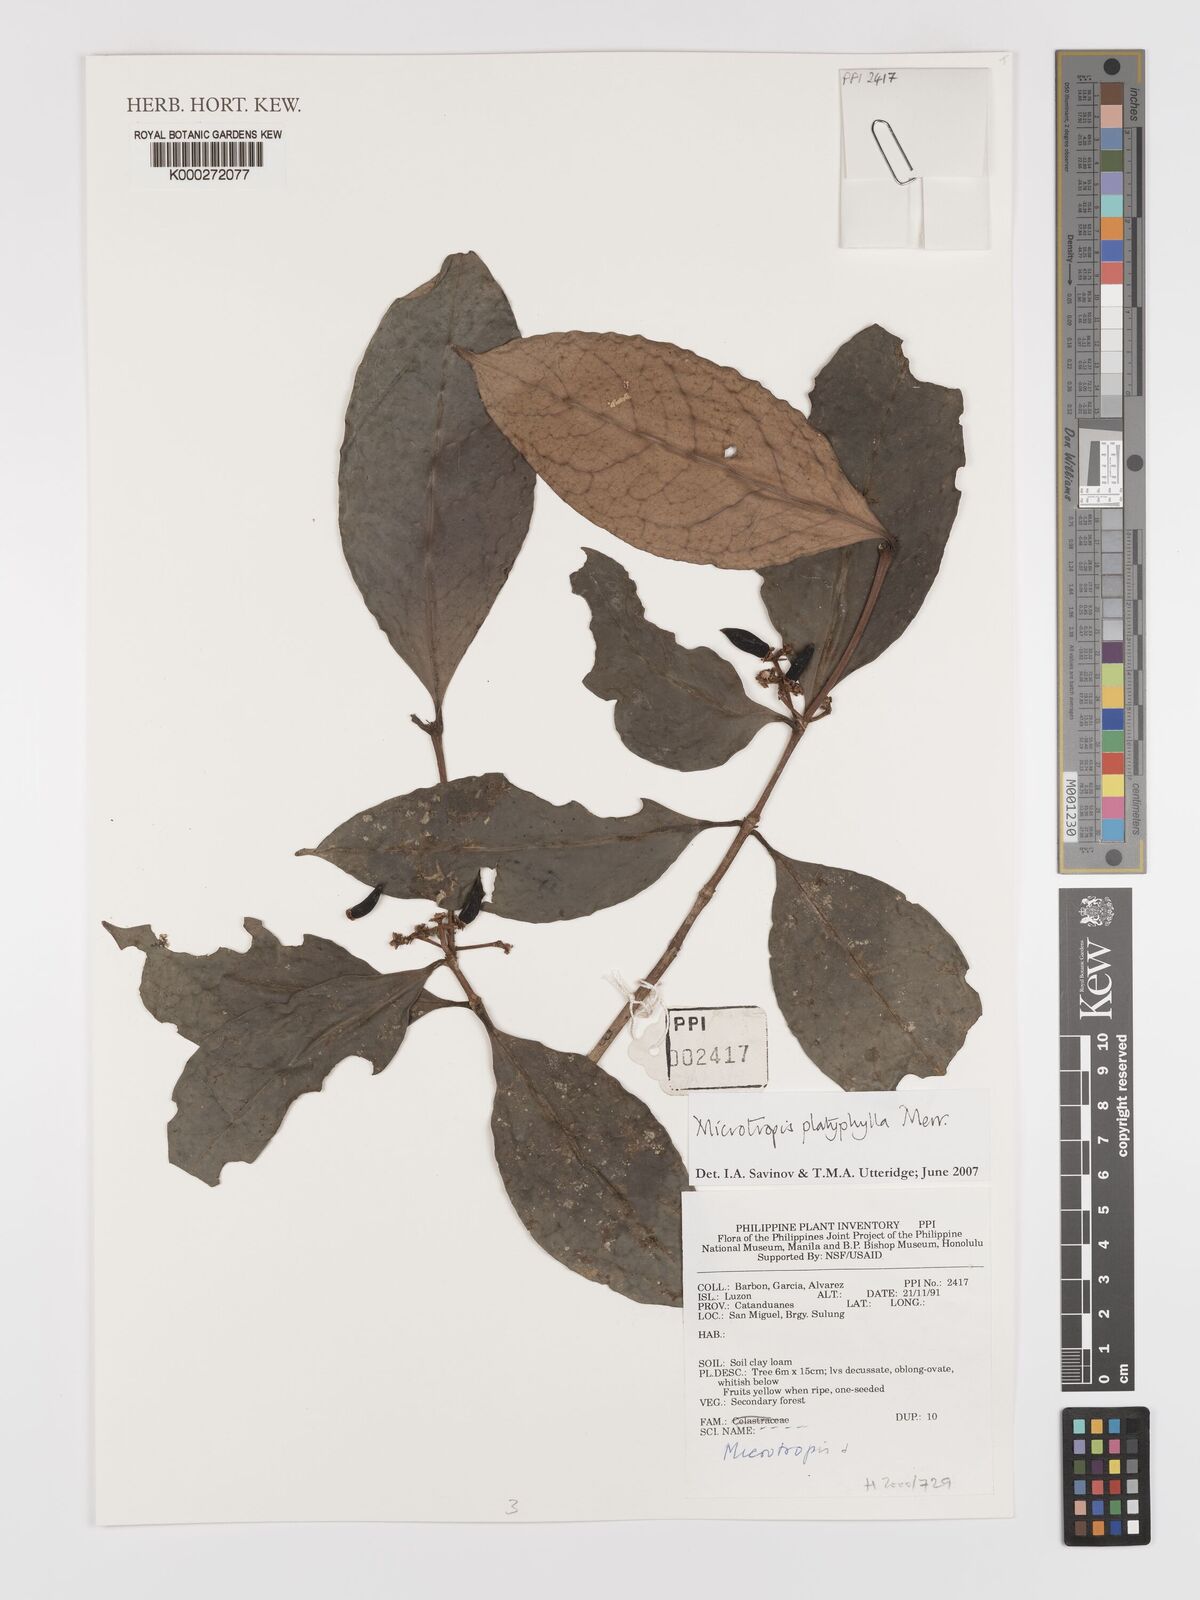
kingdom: Plantae
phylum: Tracheophyta
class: Magnoliopsida
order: Celastrales
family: Celastraceae
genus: Microtropis
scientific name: Microtropis platyphylla
